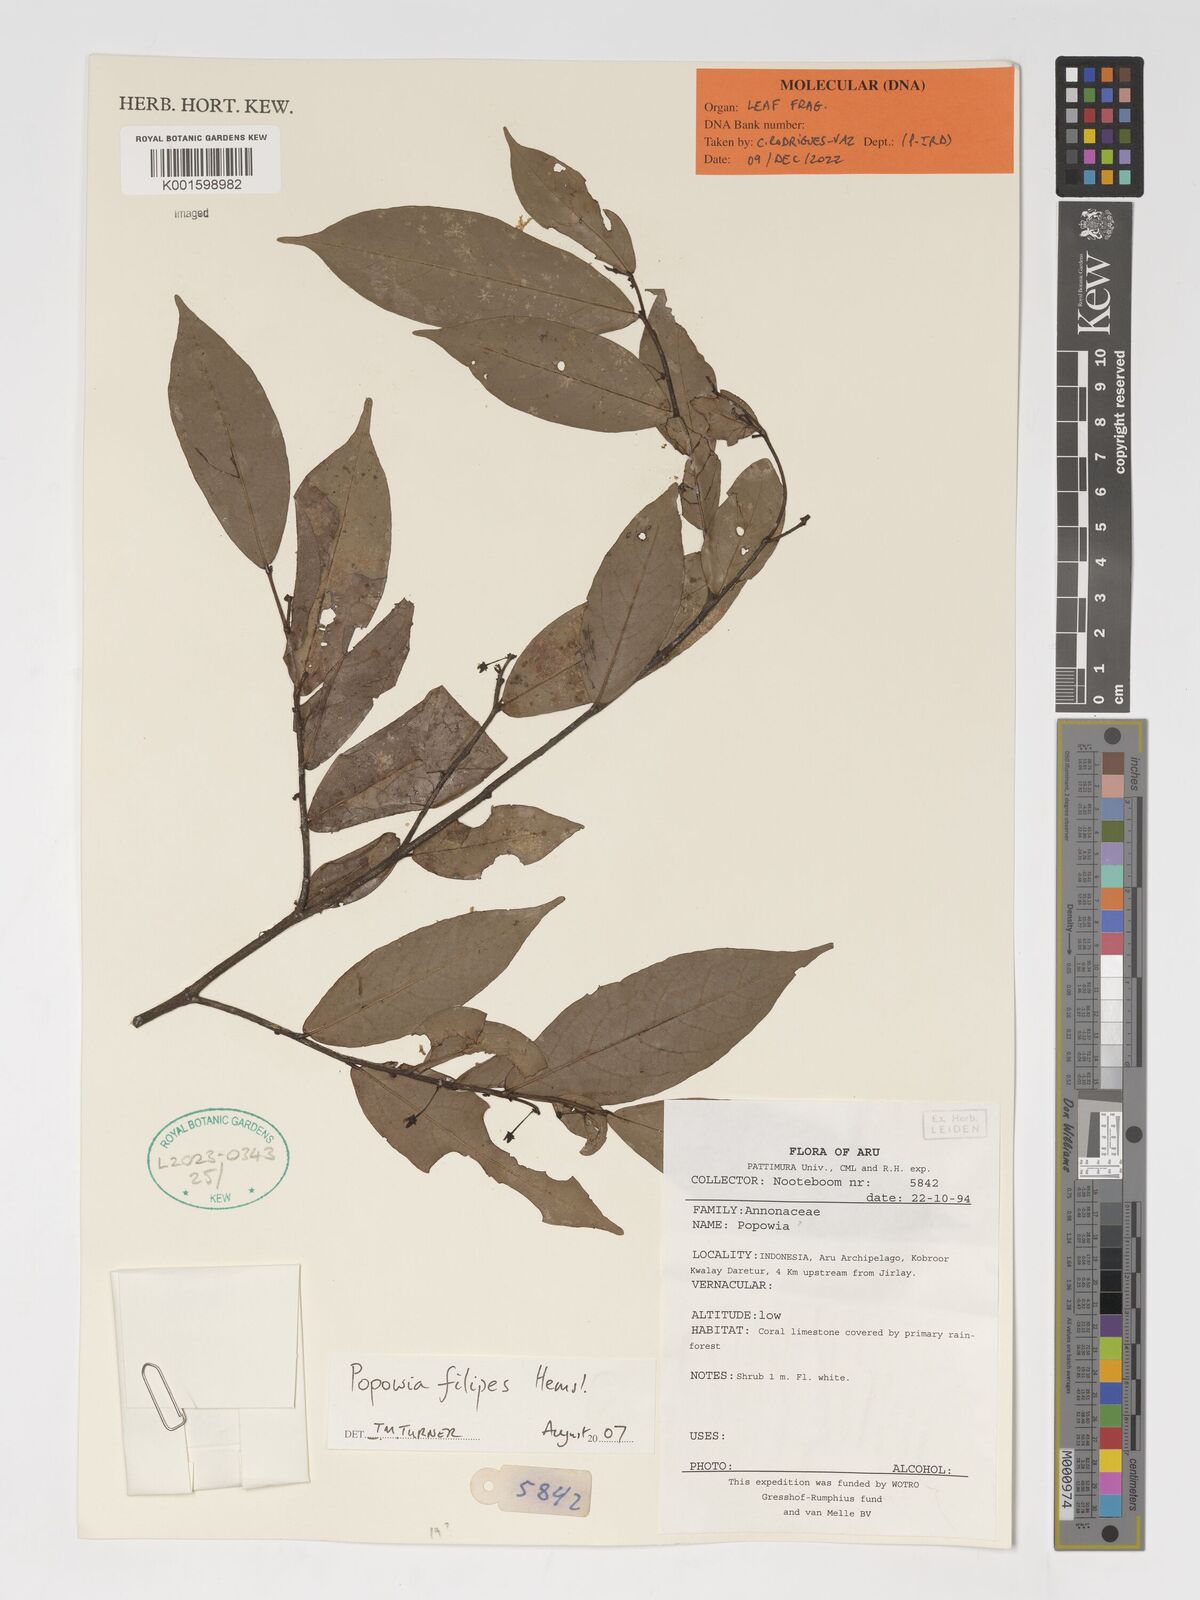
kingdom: Plantae
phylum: Tracheophyta
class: Magnoliopsida
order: Magnoliales
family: Annonaceae
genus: Popowia
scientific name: Popowia filipes
